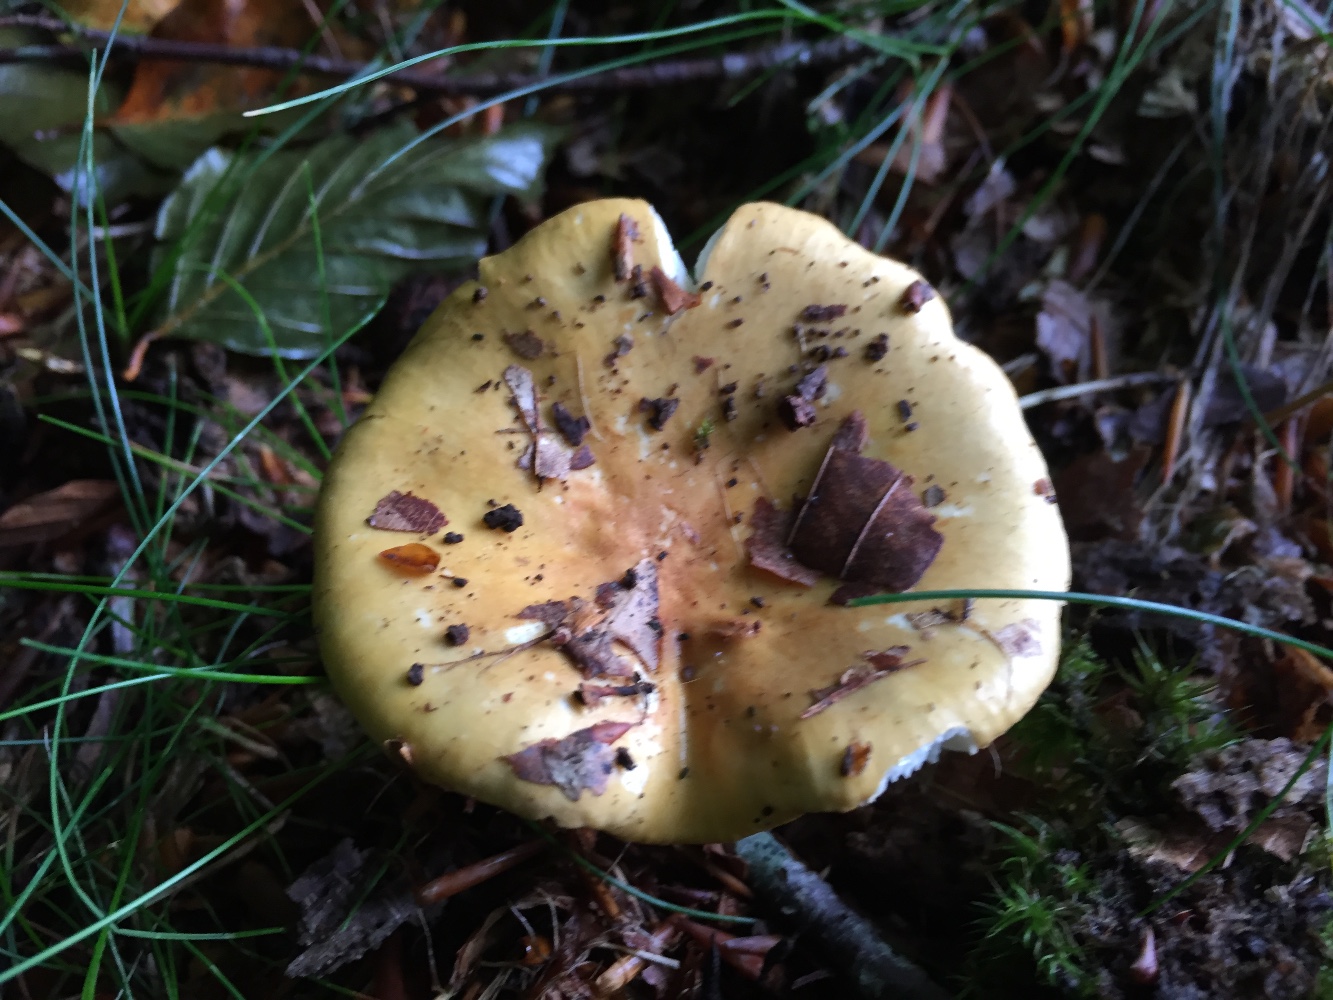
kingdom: Fungi
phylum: Basidiomycota
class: Agaricomycetes
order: Russulales
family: Russulaceae
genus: Russula
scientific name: Russula ochroleuca
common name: okkergul skørhat
